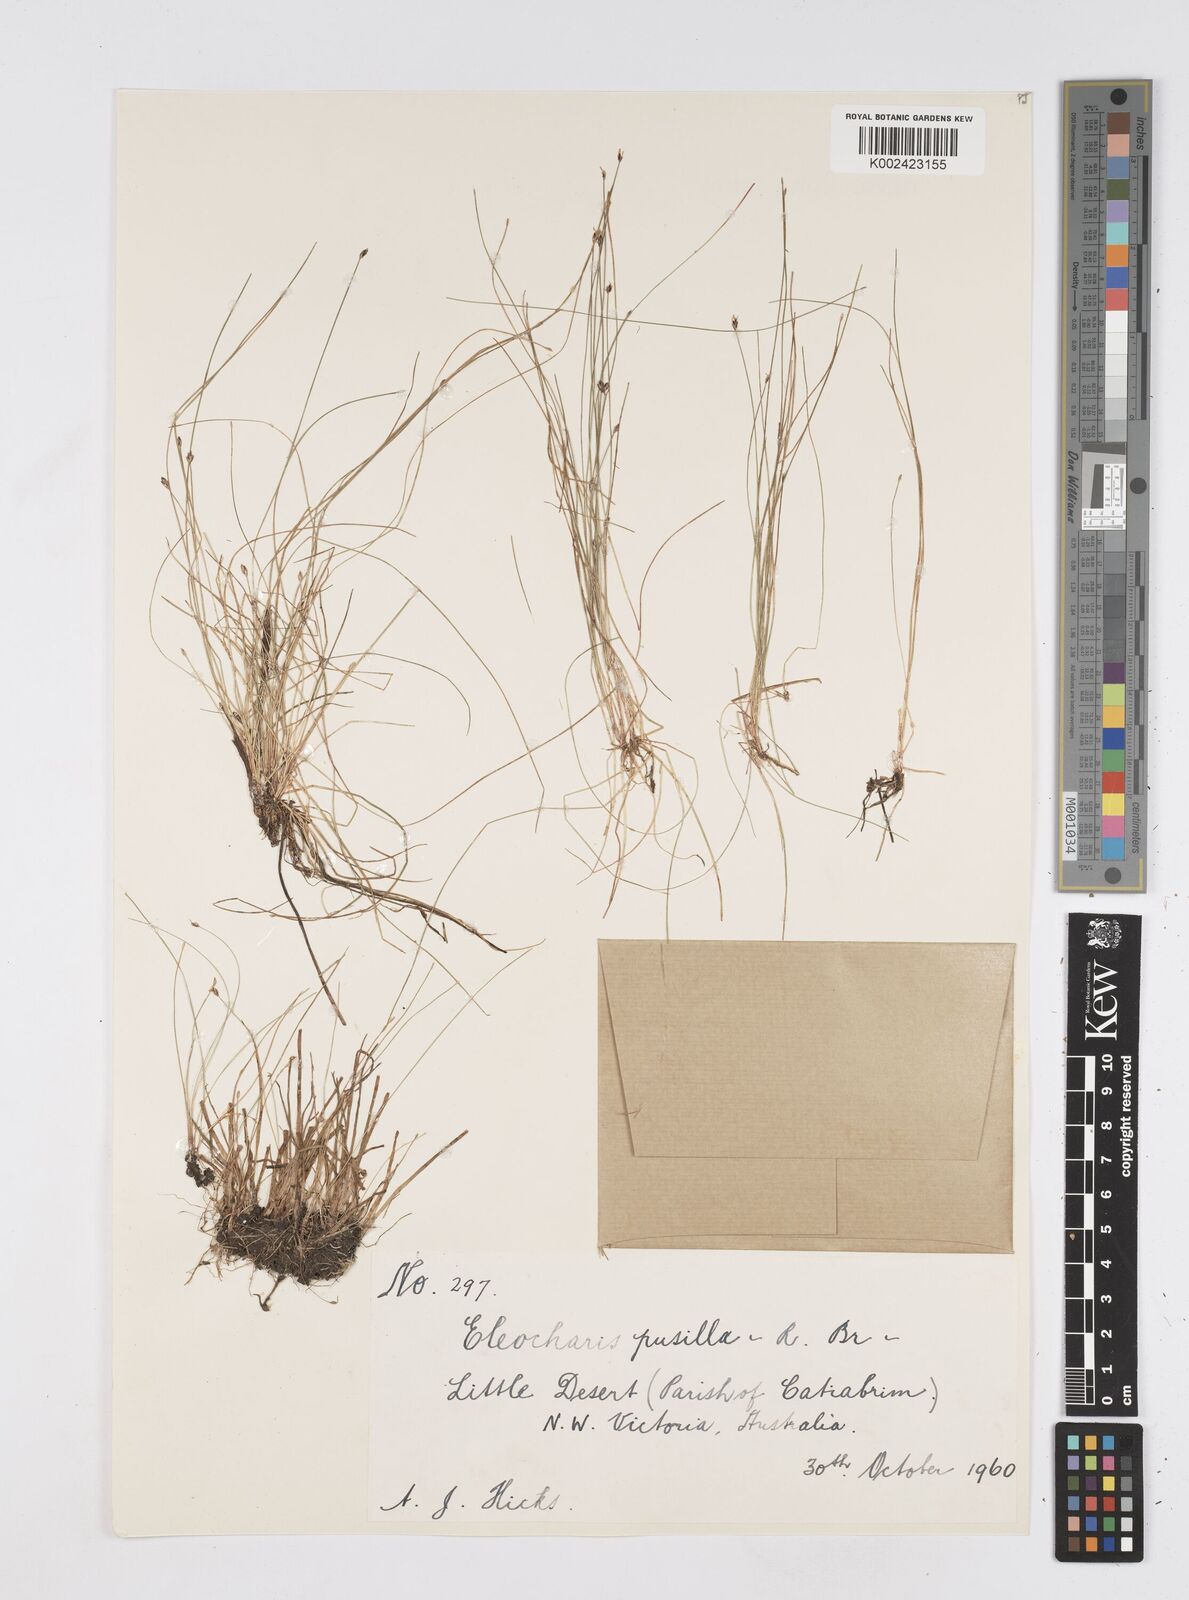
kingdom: Plantae
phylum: Tracheophyta
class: Liliopsida
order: Poales
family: Cyperaceae
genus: Eleocharis
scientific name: Eleocharis pusilla
